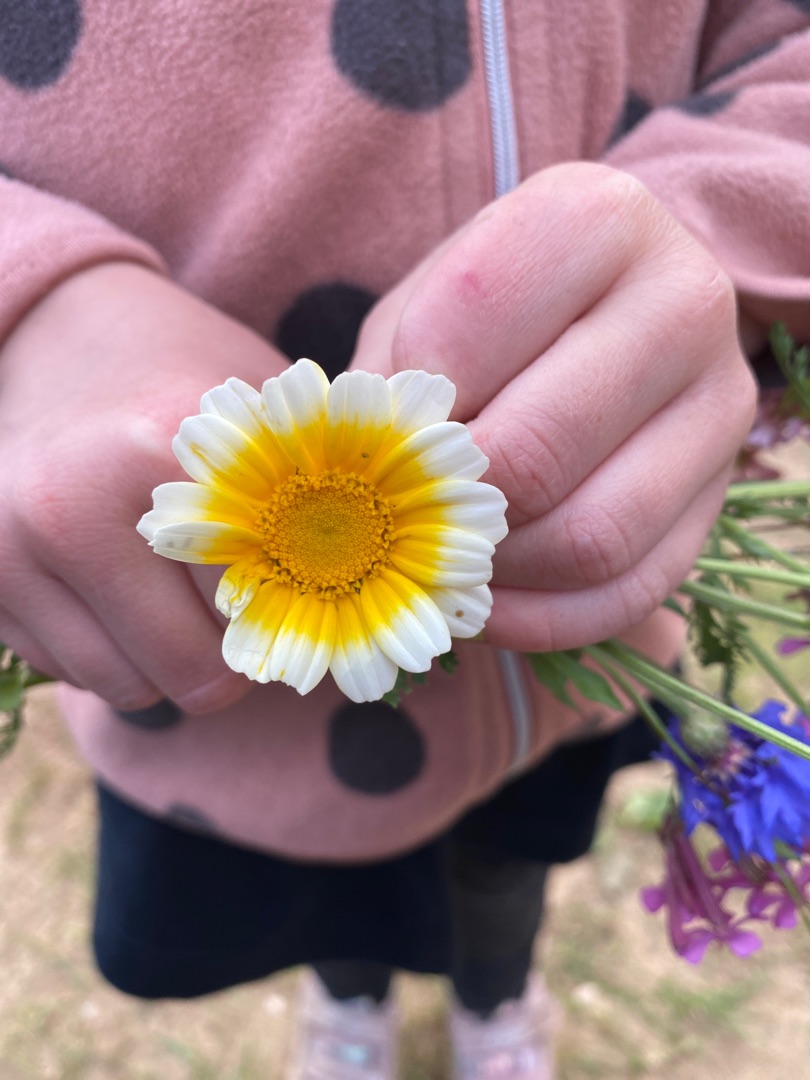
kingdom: Plantae
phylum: Tracheophyta
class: Magnoliopsida
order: Asterales
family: Asteraceae
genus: Glebionis
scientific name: Glebionis coronaria
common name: Kron-okseøje
